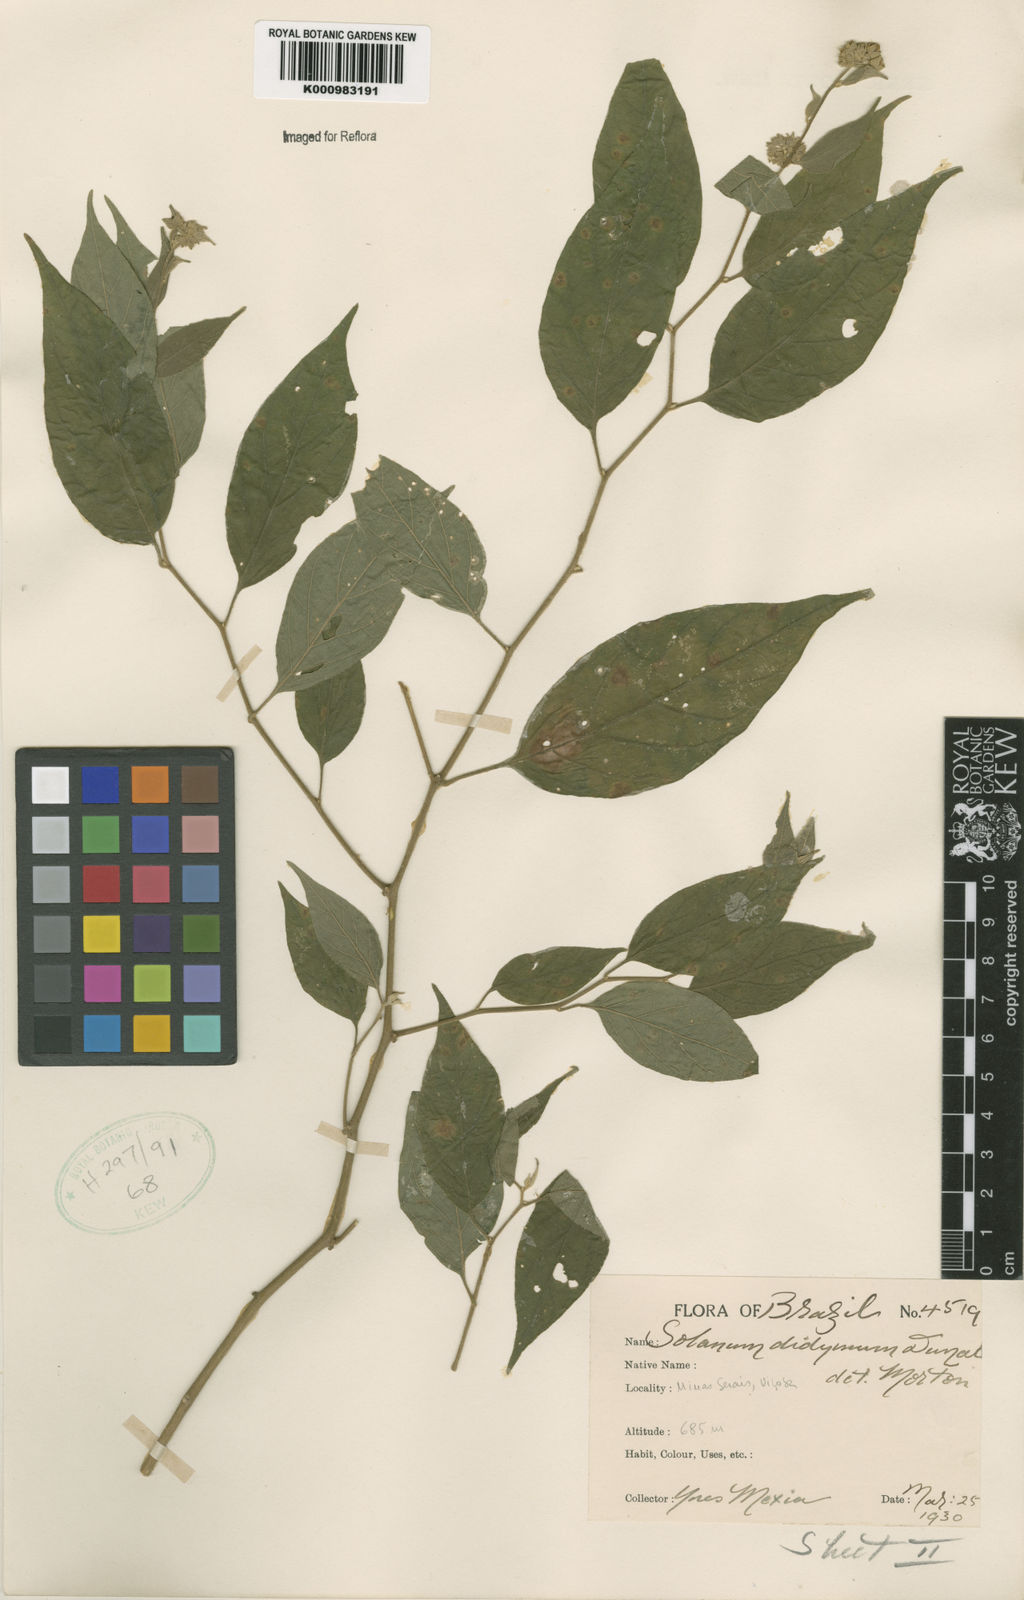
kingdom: Plantae
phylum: Tracheophyta
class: Magnoliopsida
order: Solanales
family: Solanaceae
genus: Solanum
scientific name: Solanum didymum
